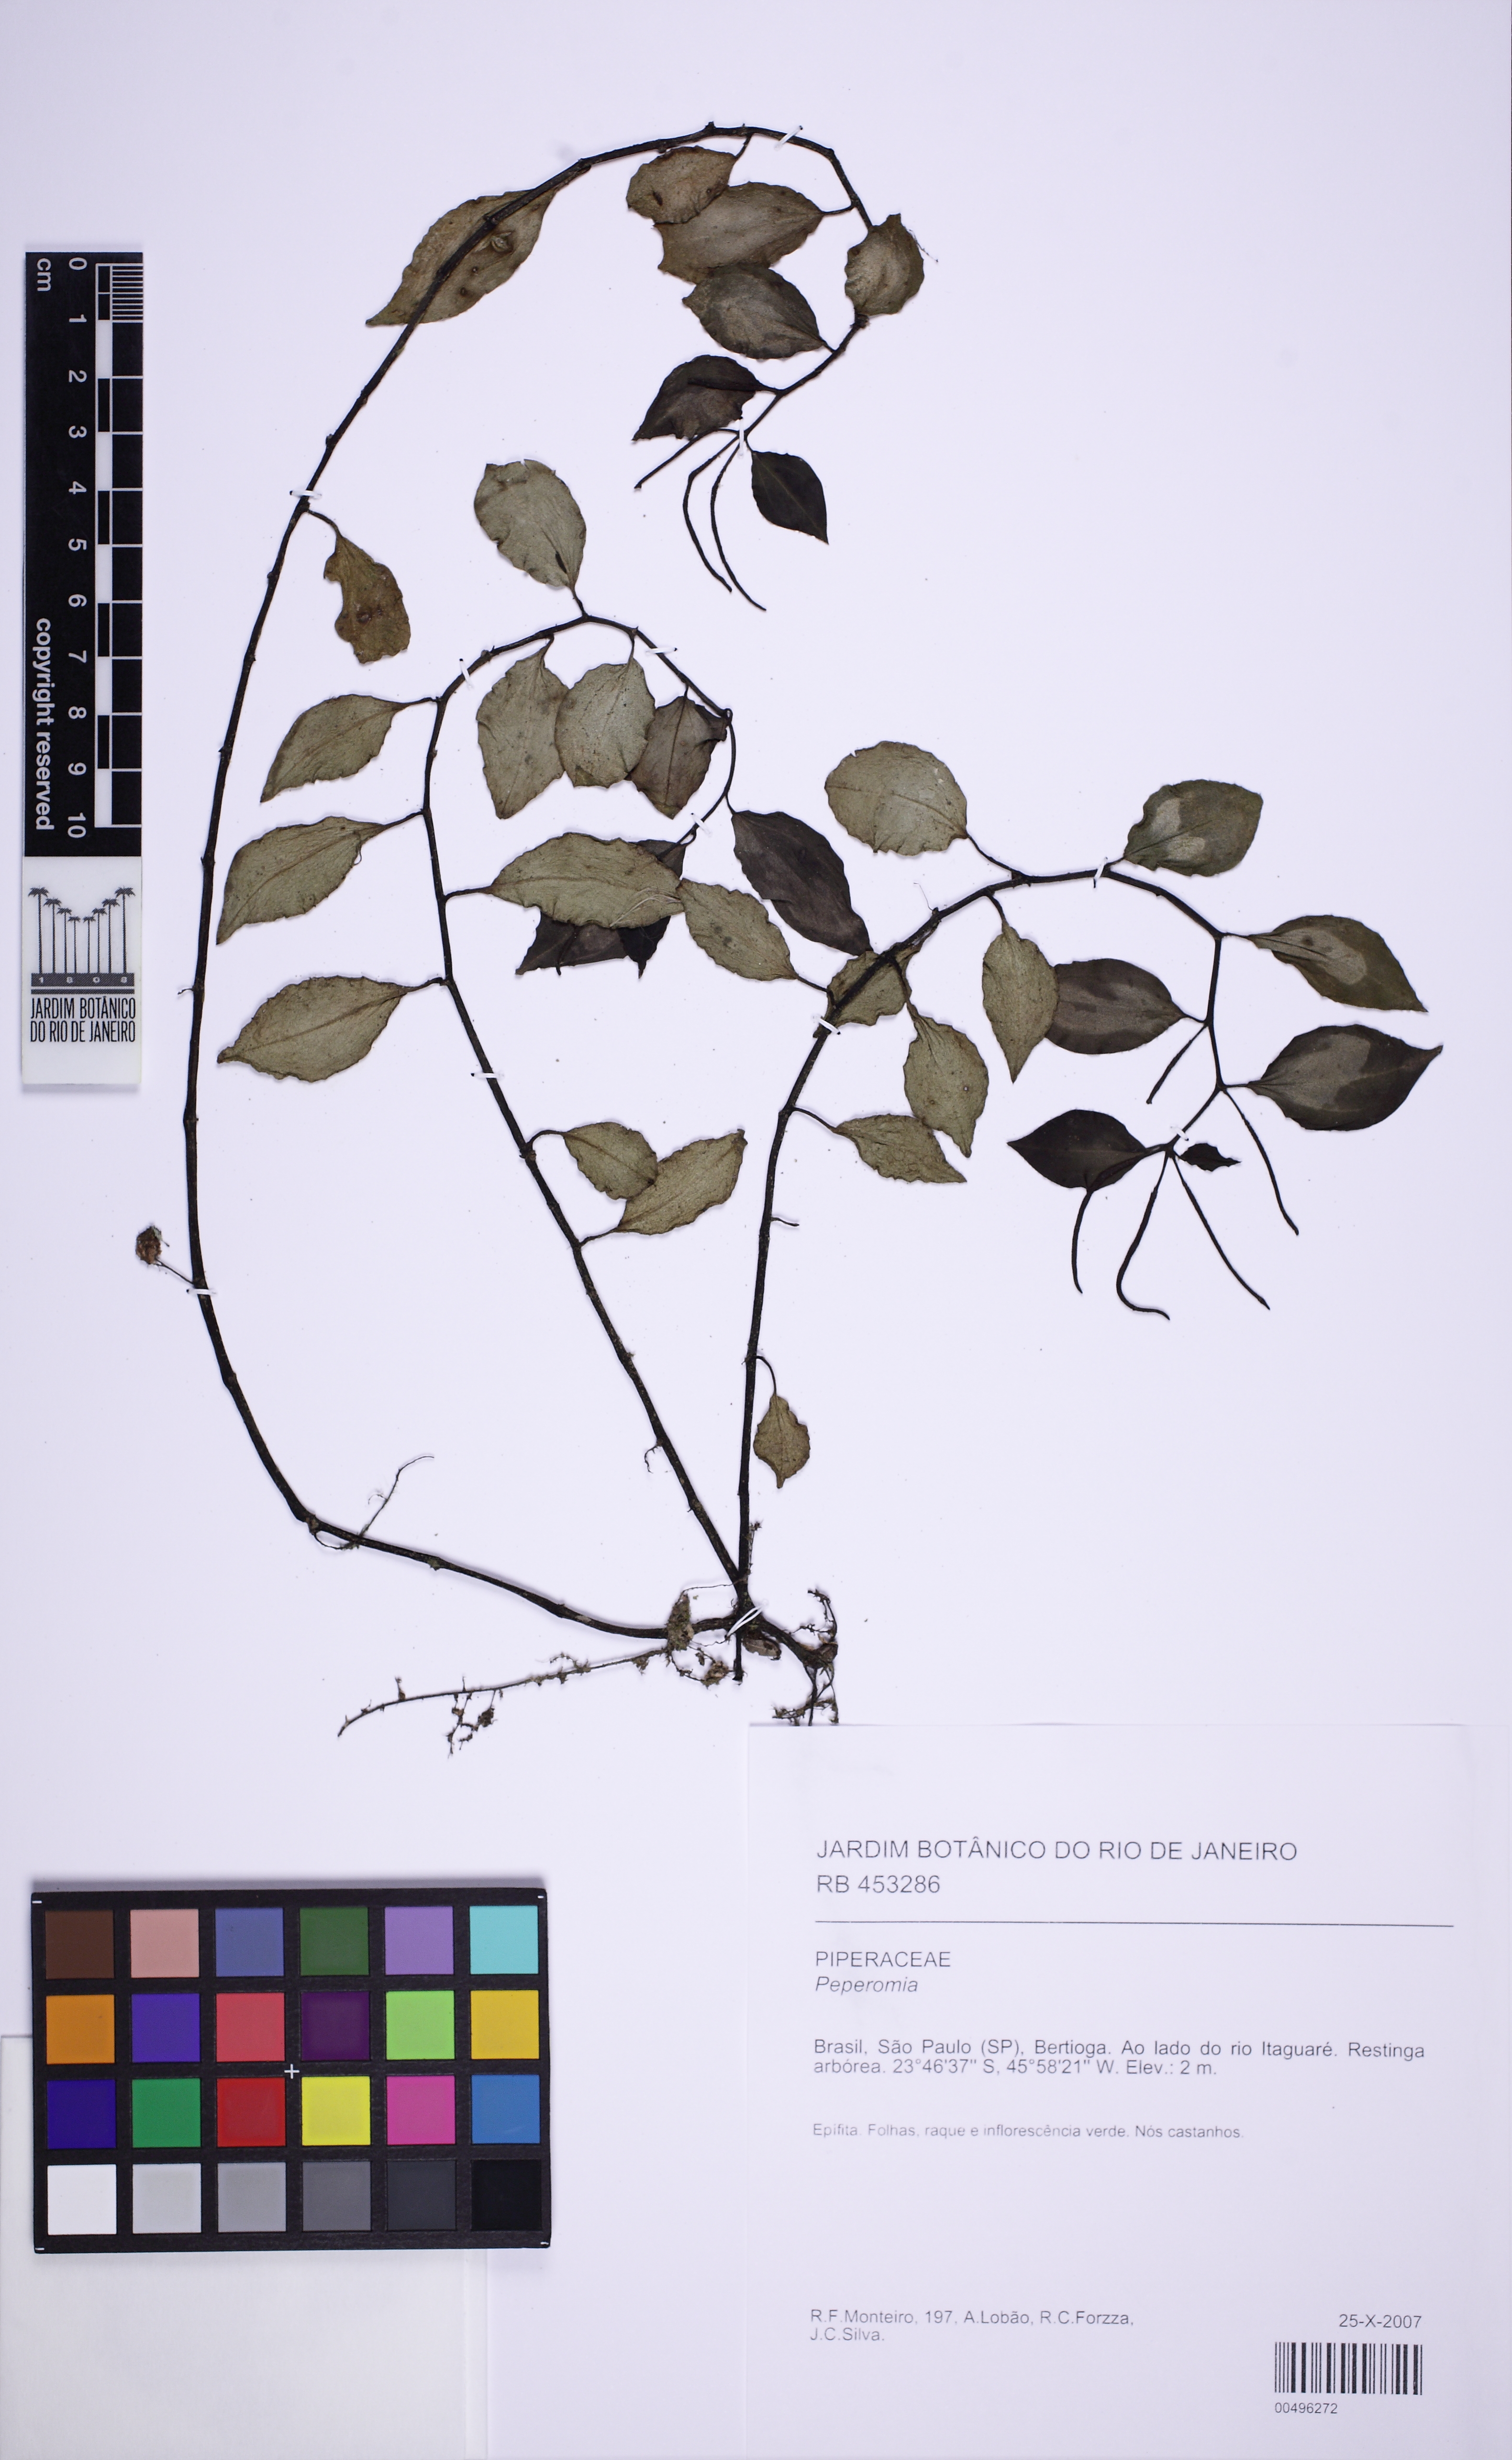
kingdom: Plantae
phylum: Tracheophyta
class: Magnoliopsida
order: Piperales
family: Piperaceae
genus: Peperomia
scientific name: Peperomia glabella
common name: Cypress peperomia
